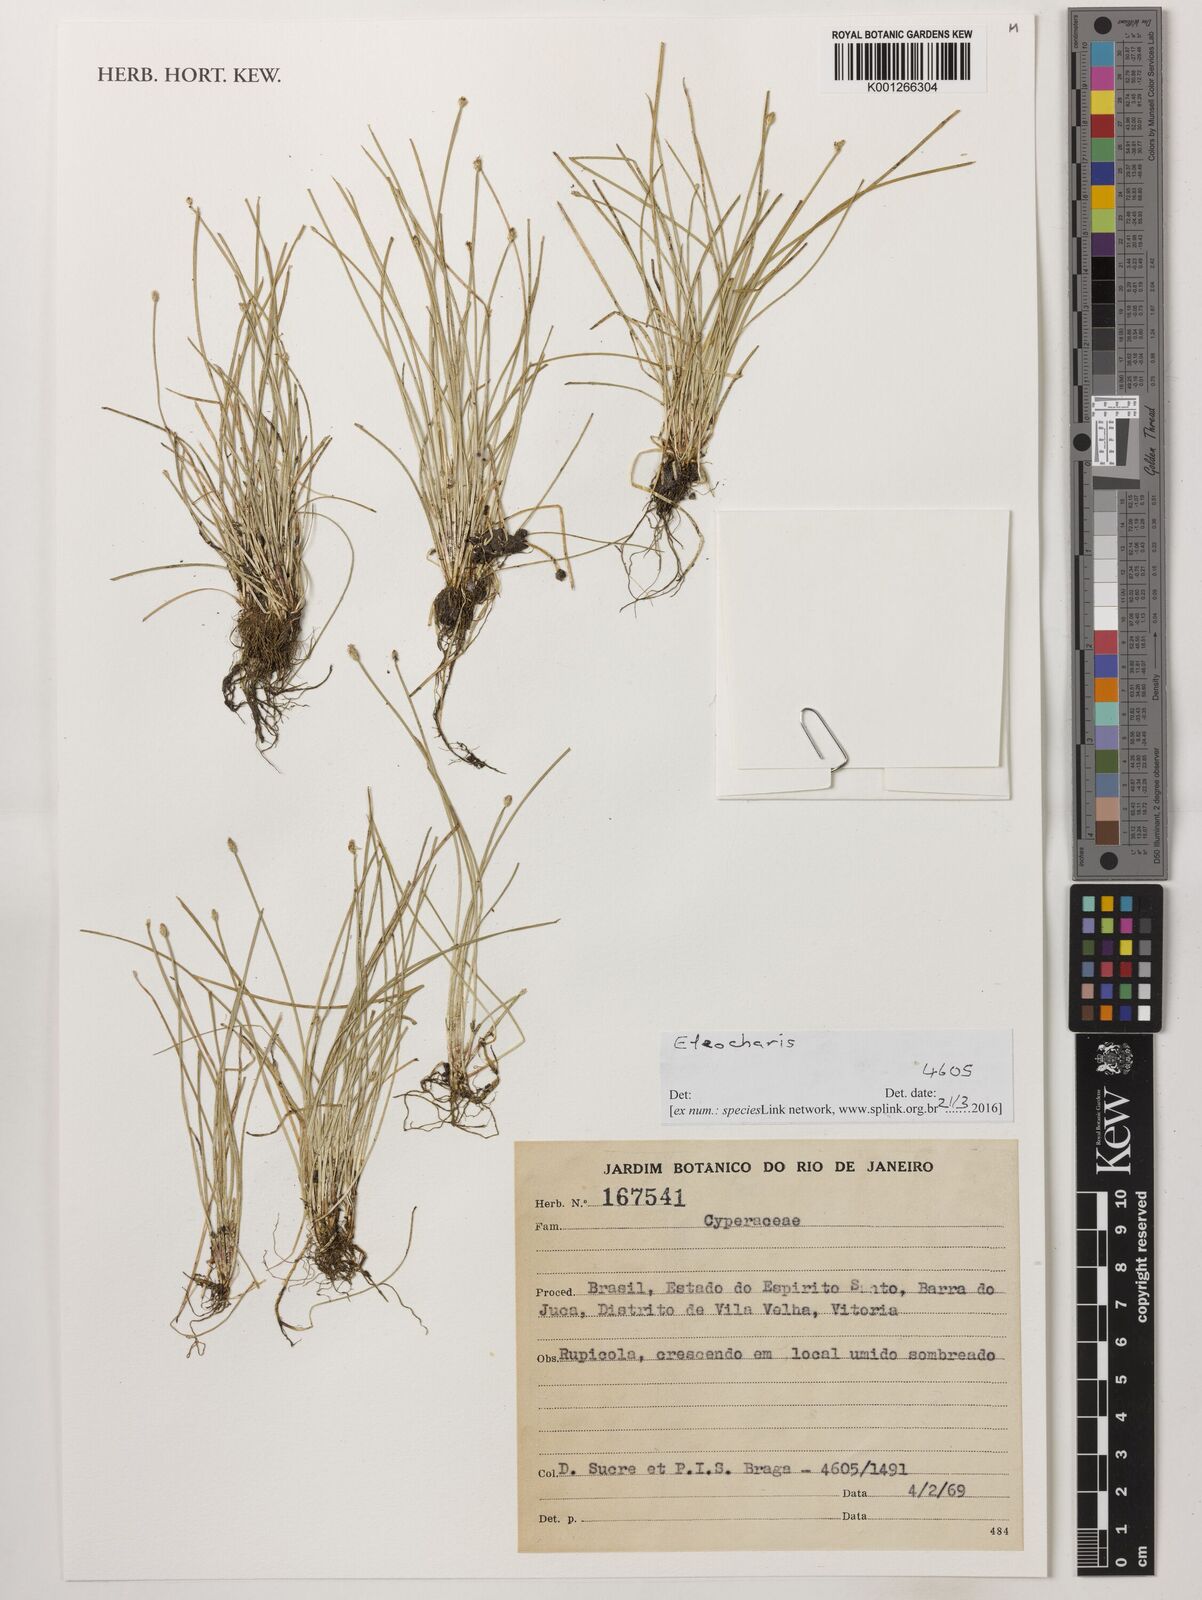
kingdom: Plantae
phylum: Tracheophyta
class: Liliopsida
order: Poales
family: Cyperaceae
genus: Eleocharis
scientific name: Eleocharis
